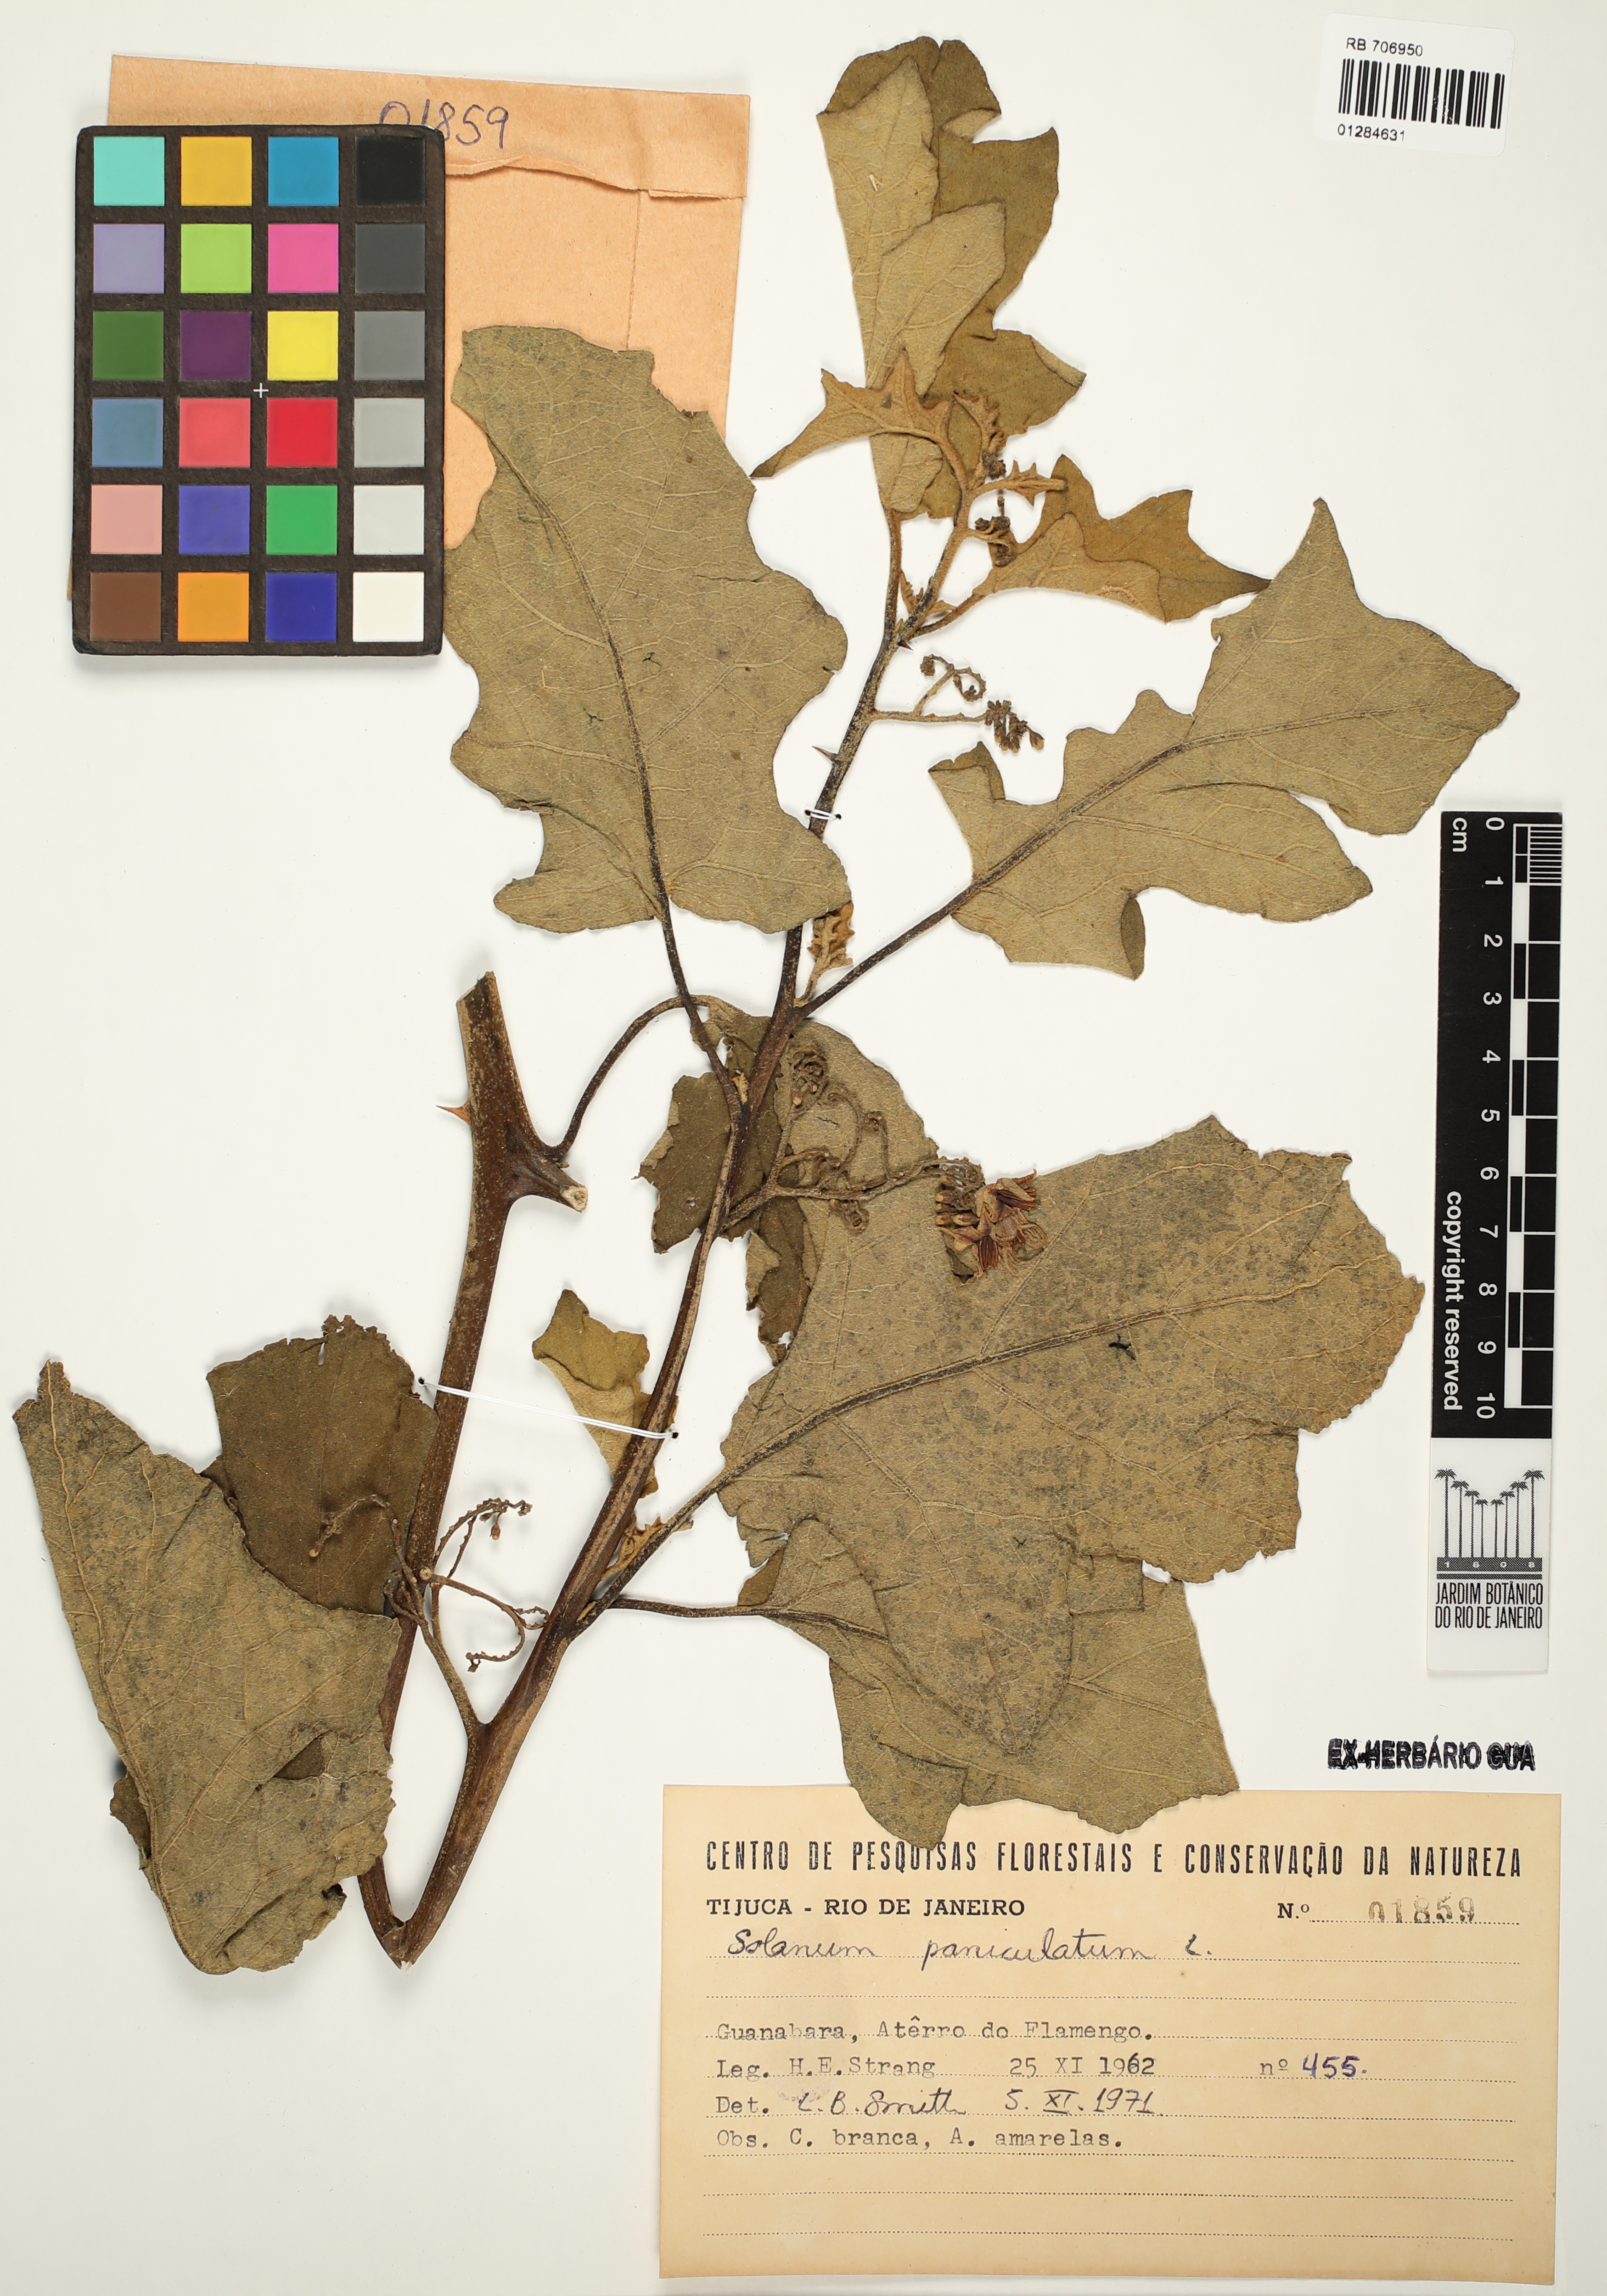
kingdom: Plantae
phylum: Tracheophyta
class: Magnoliopsida
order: Solanales
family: Solanaceae
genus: Solanum
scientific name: Solanum paniculatum
